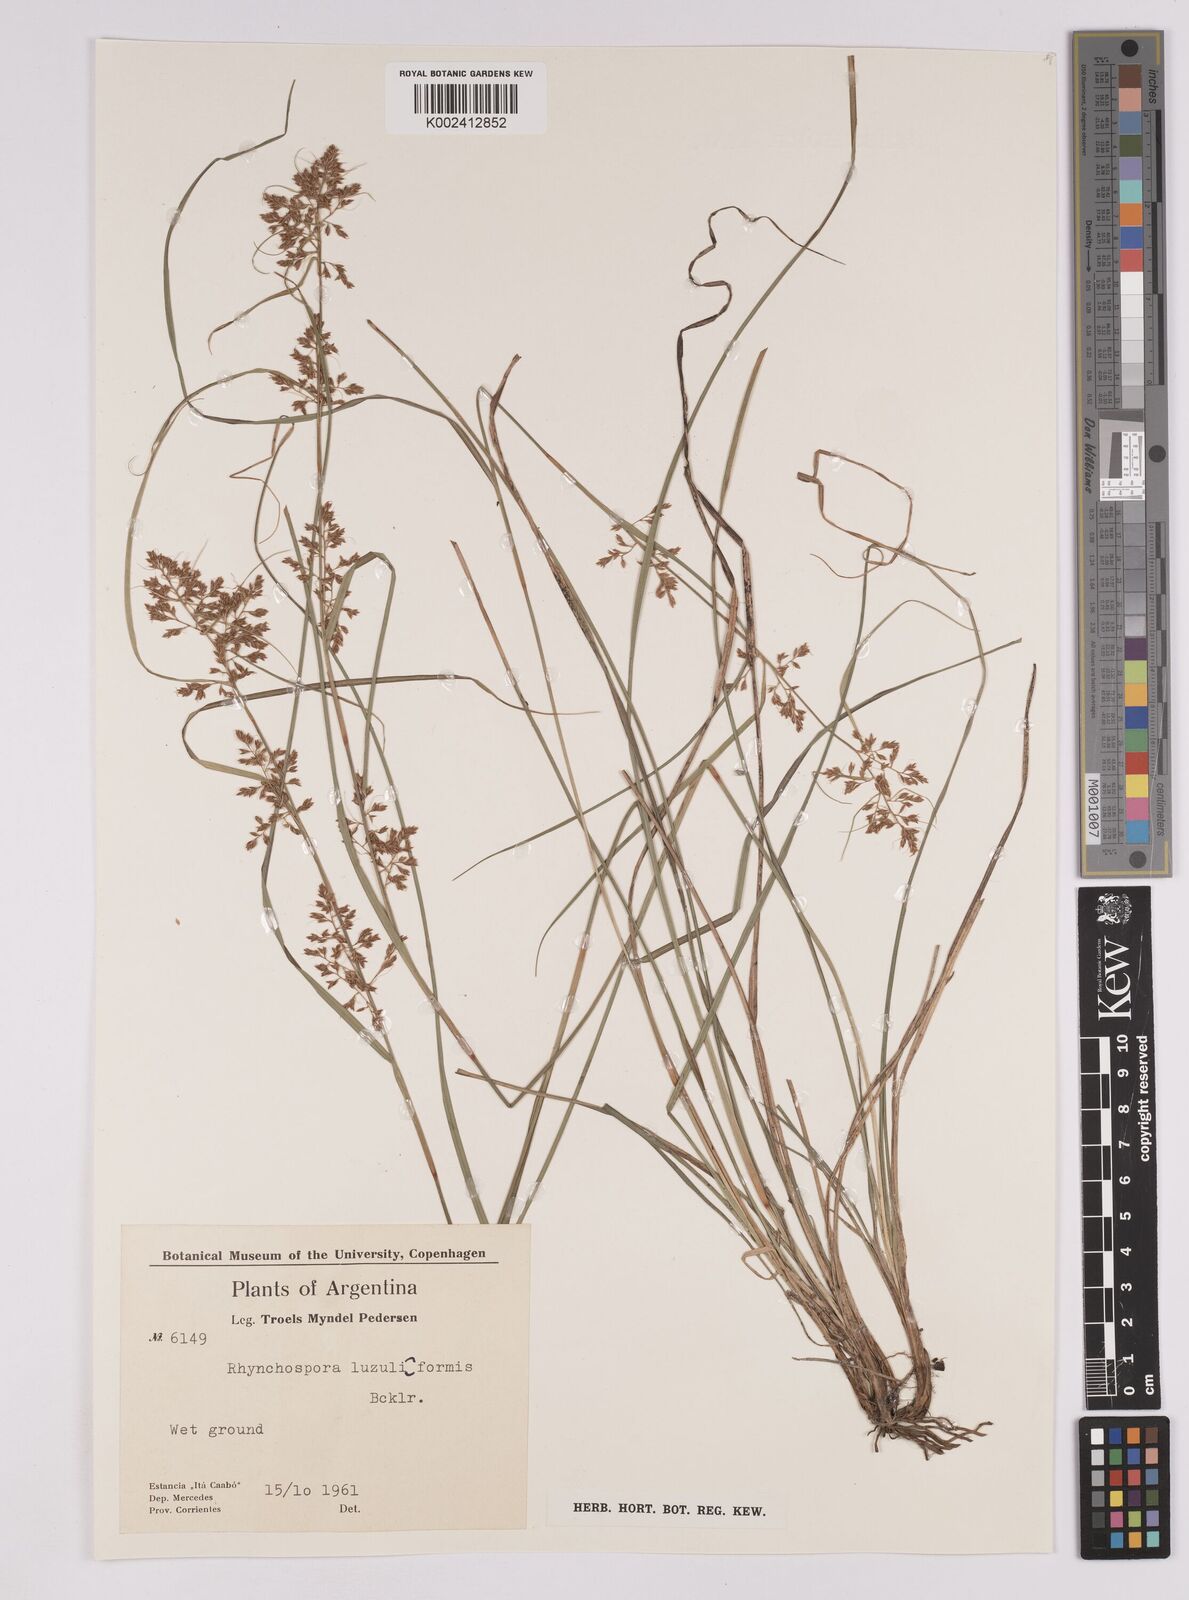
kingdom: Plantae
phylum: Tracheophyta
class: Liliopsida
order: Poales
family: Cyperaceae
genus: Rhynchospora
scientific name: Rhynchospora megapotamica
